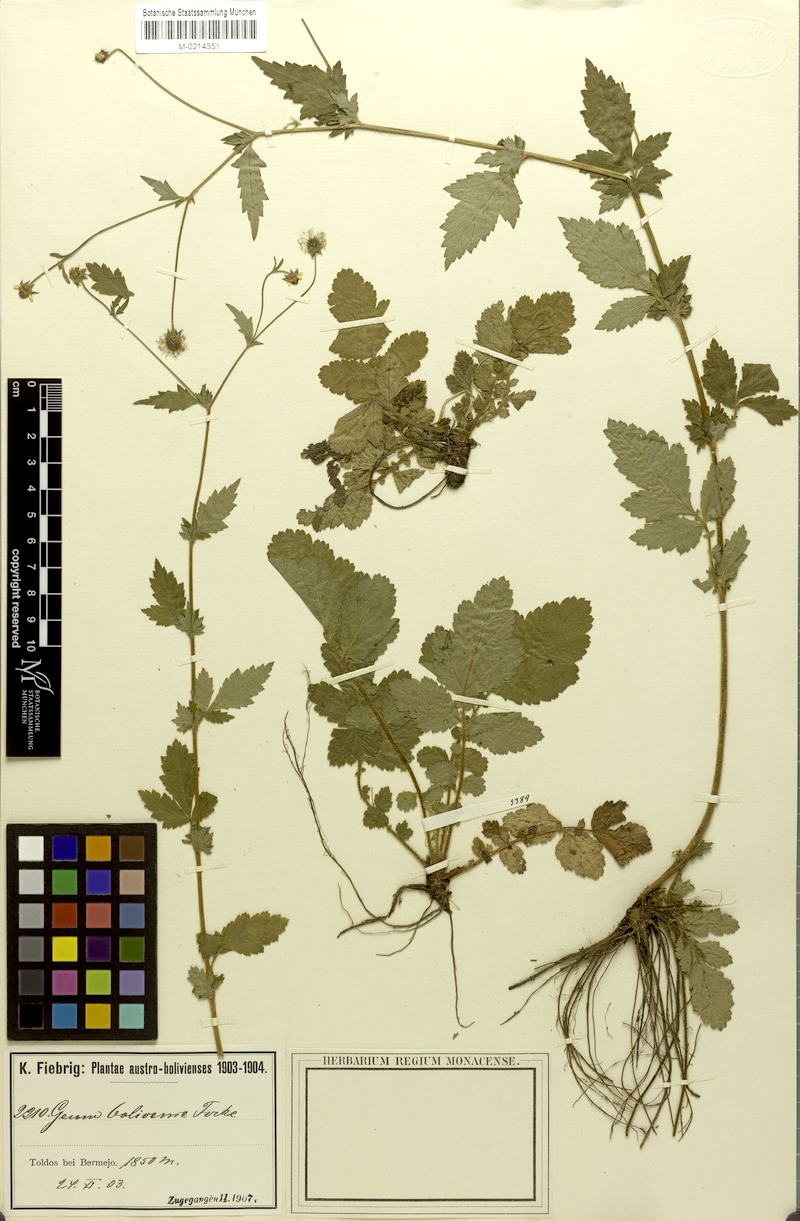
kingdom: Plantae
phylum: Tracheophyta
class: Magnoliopsida
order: Rosales
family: Rosaceae
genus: Geum
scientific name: Geum boliviense
